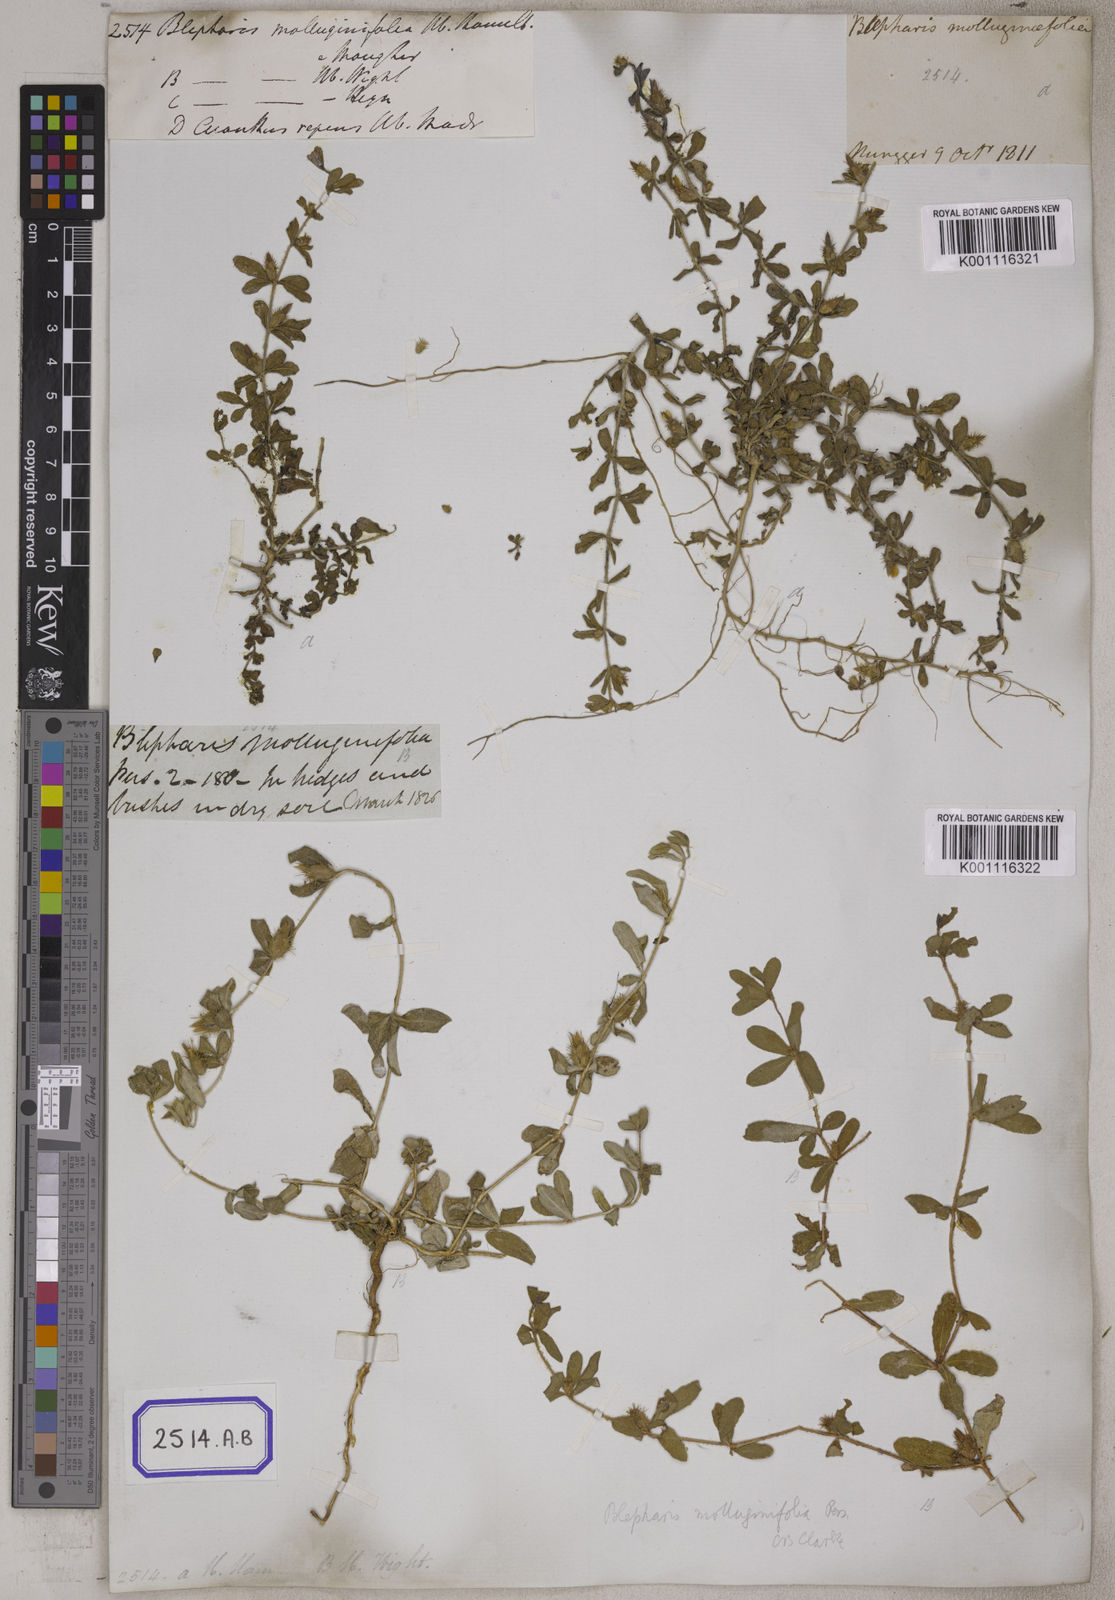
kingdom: Plantae
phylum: Tracheophyta
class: Magnoliopsida
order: Lamiales
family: Acanthaceae
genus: Blepharis
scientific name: Blepharis integrifolia
